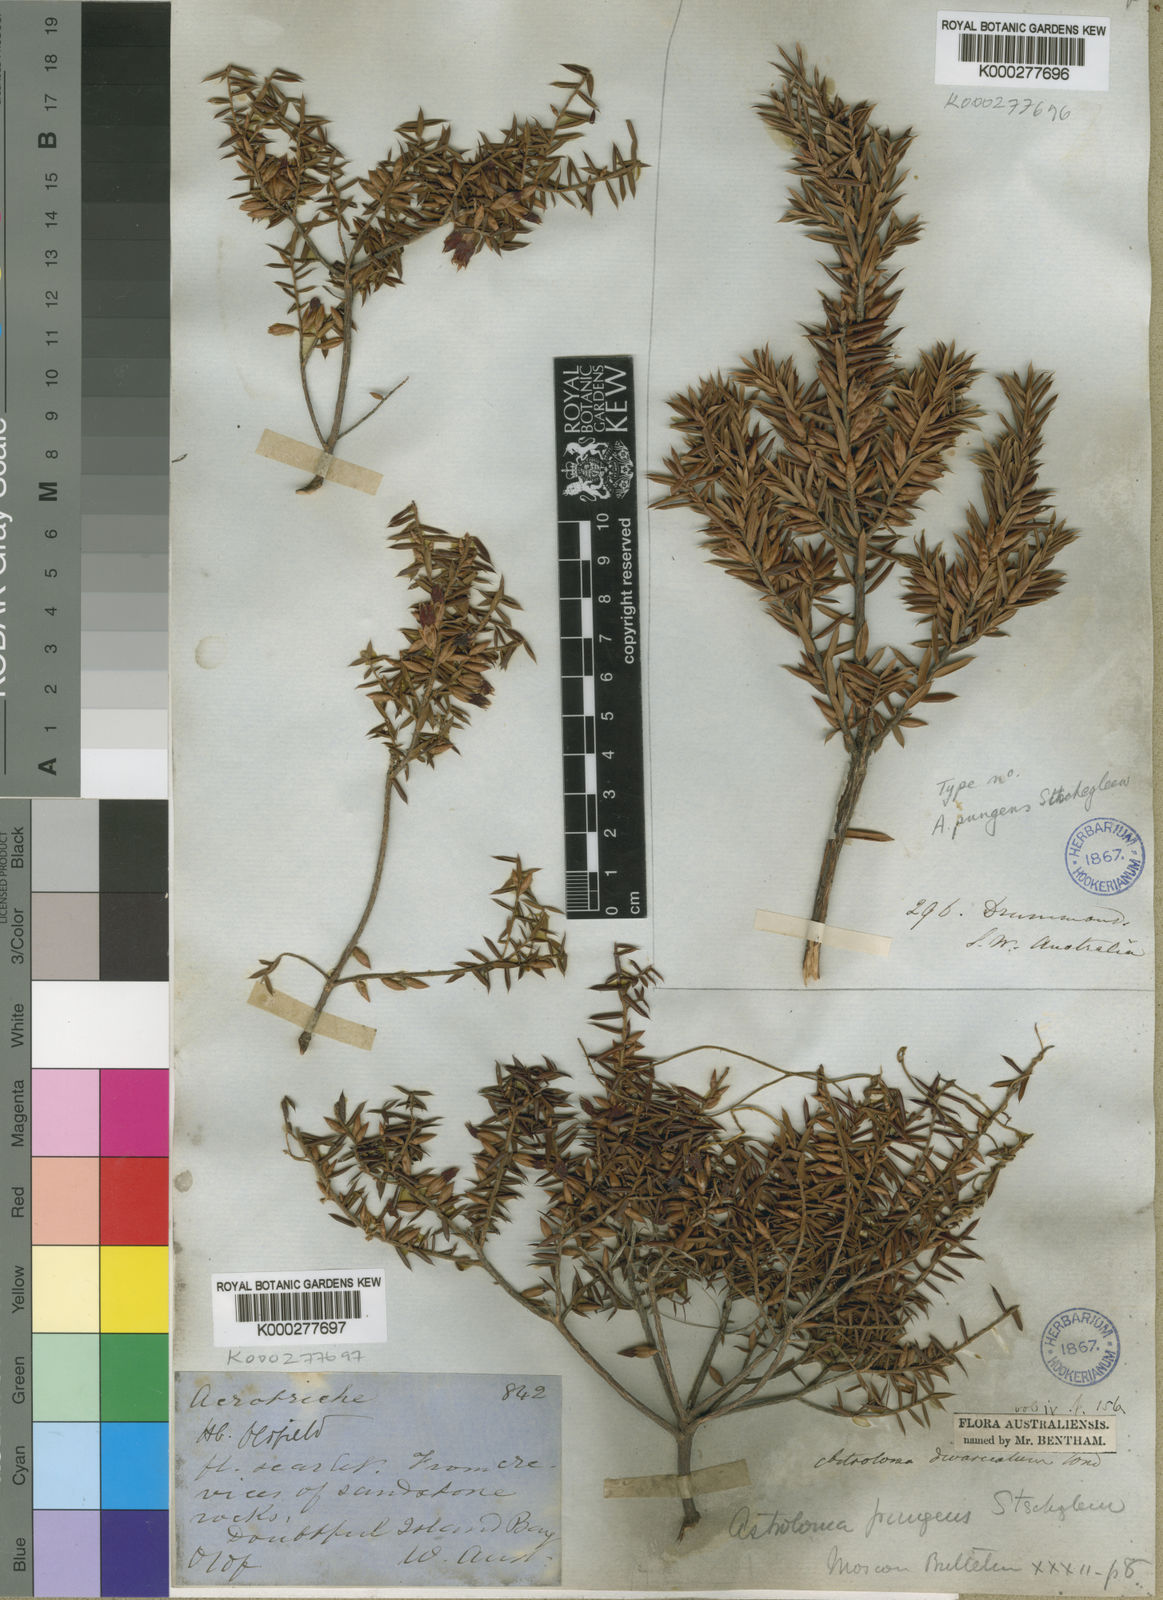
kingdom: Plantae
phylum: Tracheophyta
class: Magnoliopsida
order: Ericales
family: Ericaceae
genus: Styphelia
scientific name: Styphelia epacridis
